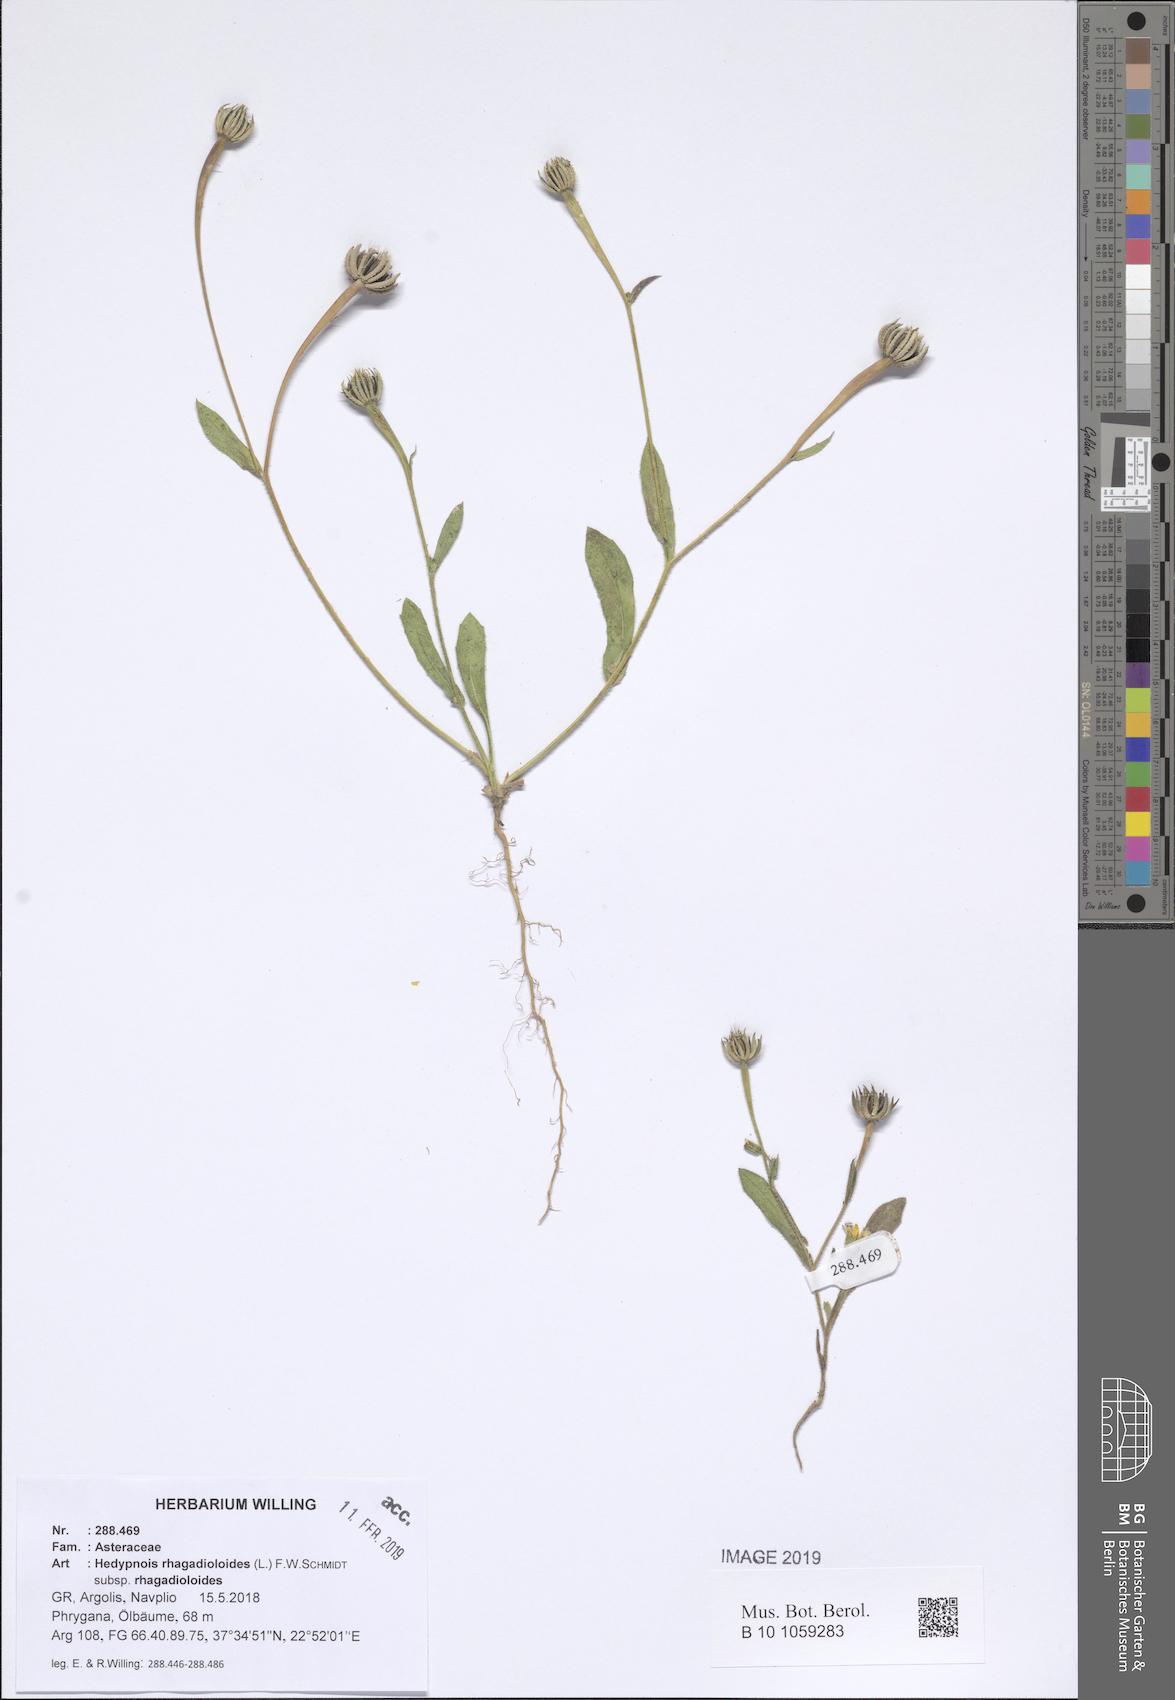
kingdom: Plantae
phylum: Tracheophyta
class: Magnoliopsida
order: Asterales
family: Asteraceae
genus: Hedypnois
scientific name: Hedypnois rhagadioloides
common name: Cretan weed
